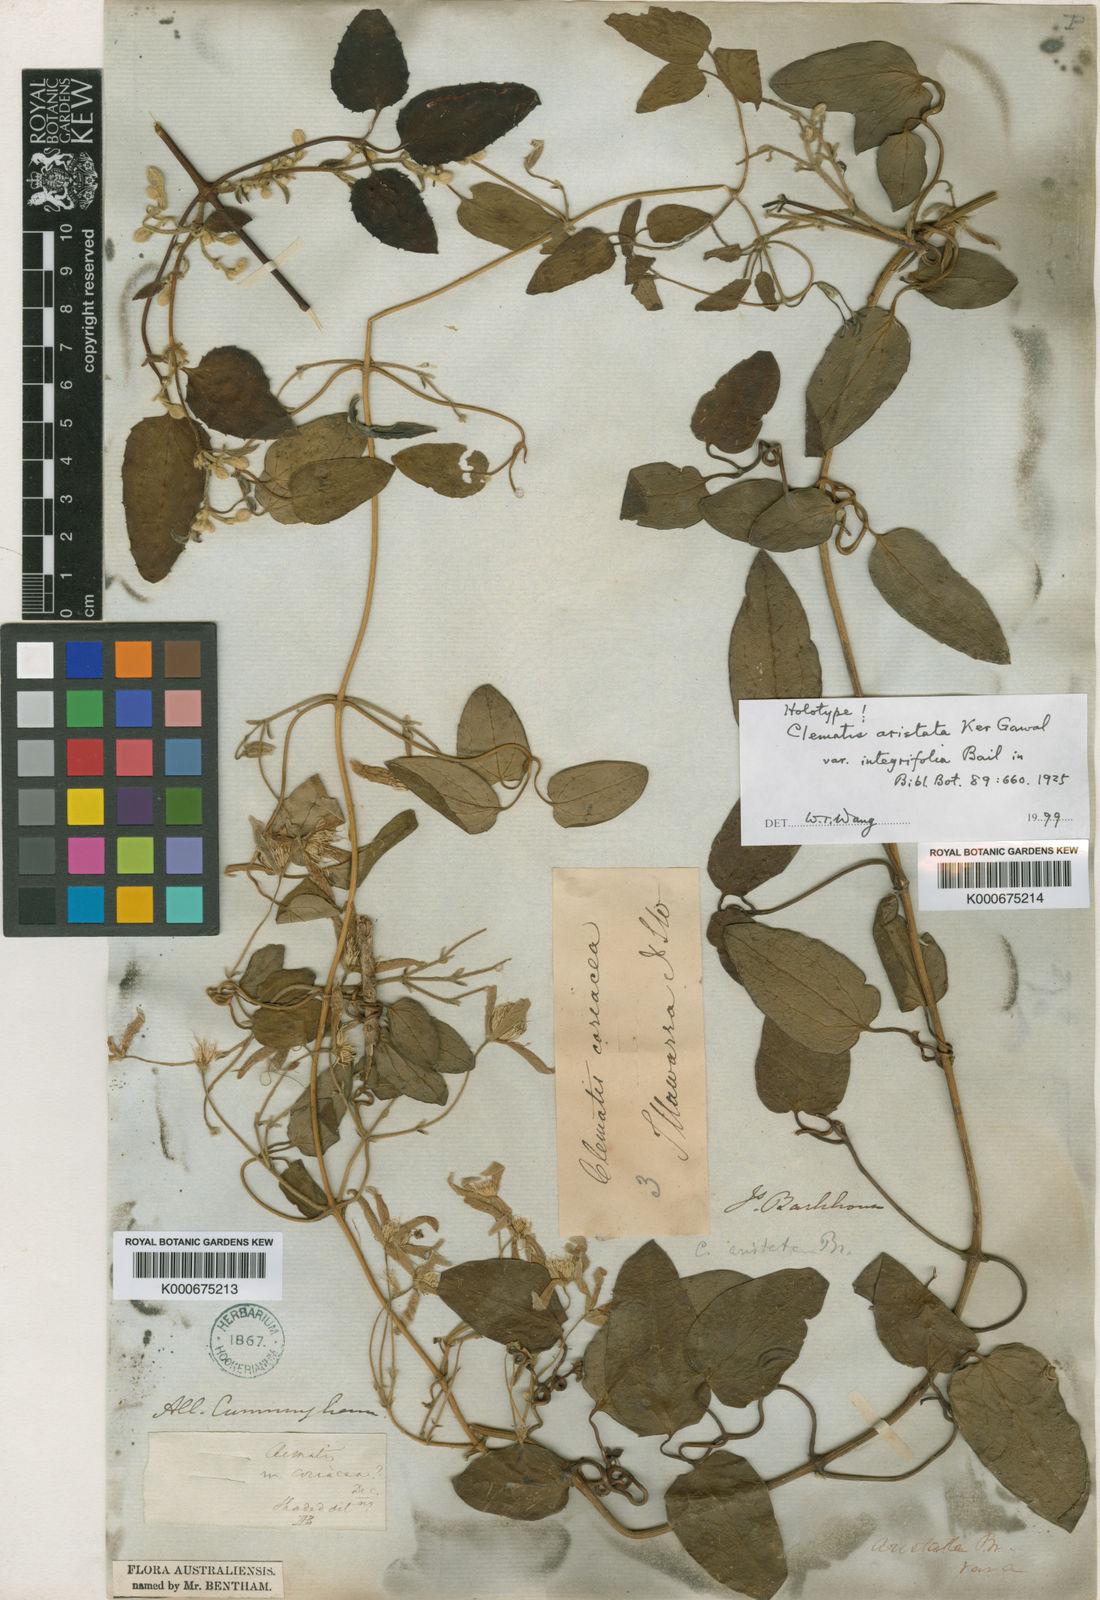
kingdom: Plantae
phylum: Tracheophyta
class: Magnoliopsida
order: Ranunculales
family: Ranunculaceae
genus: Clematis
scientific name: Clematis aristata
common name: Mountain clematis
